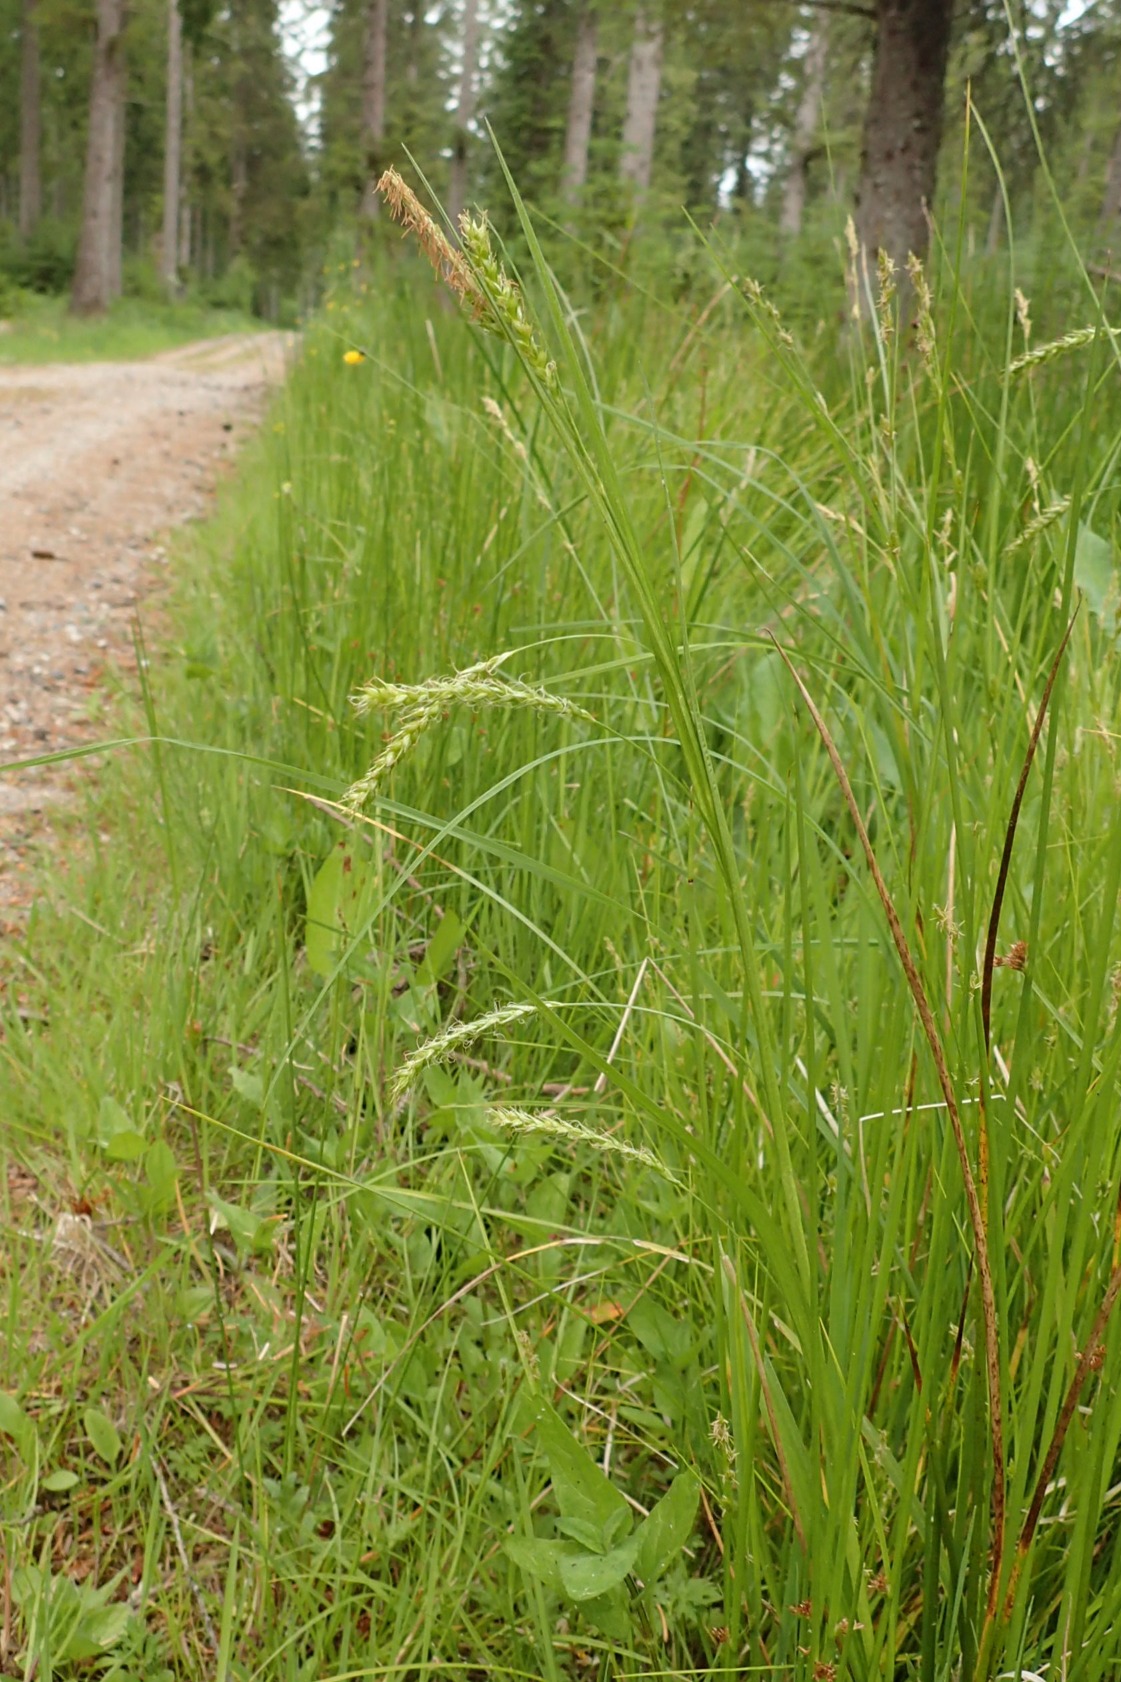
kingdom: Plantae
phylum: Tracheophyta
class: Liliopsida
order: Poales
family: Cyperaceae
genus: Carex
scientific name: Carex sylvatica
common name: Skov-star
